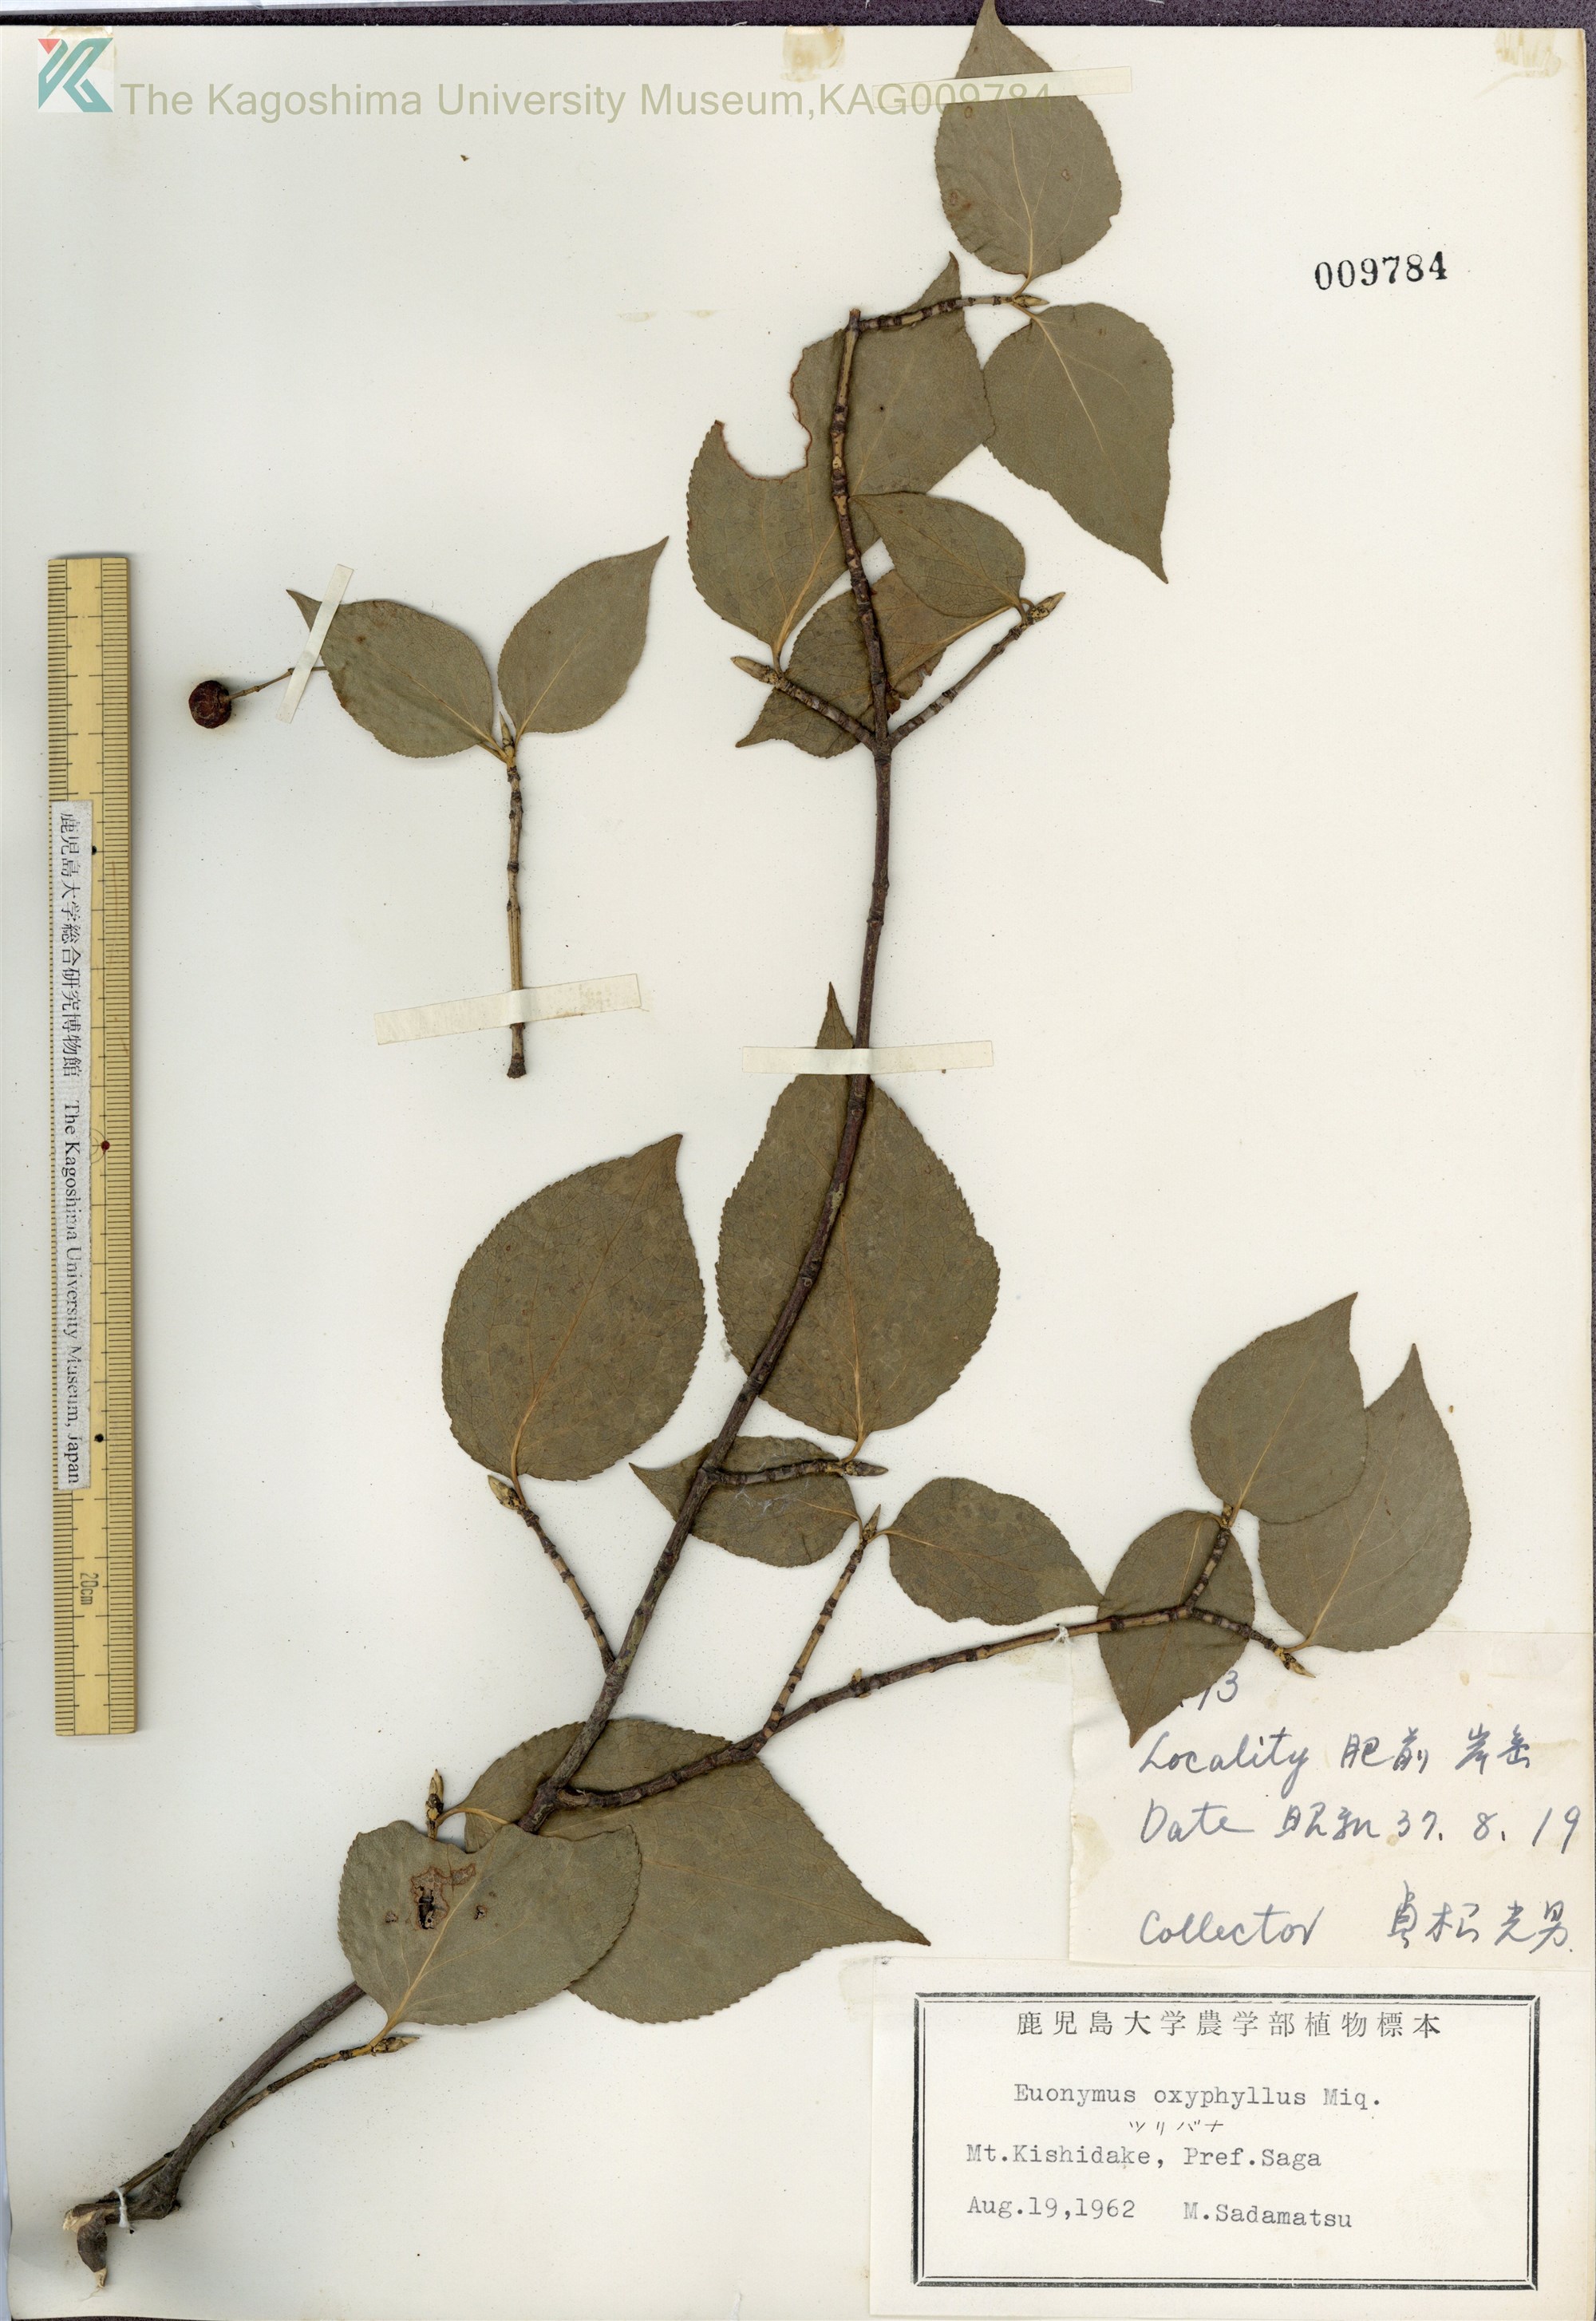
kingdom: Plantae
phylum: Tracheophyta
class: Magnoliopsida
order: Celastrales
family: Celastraceae
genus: Euonymus
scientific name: Euonymus oxyphyllus
